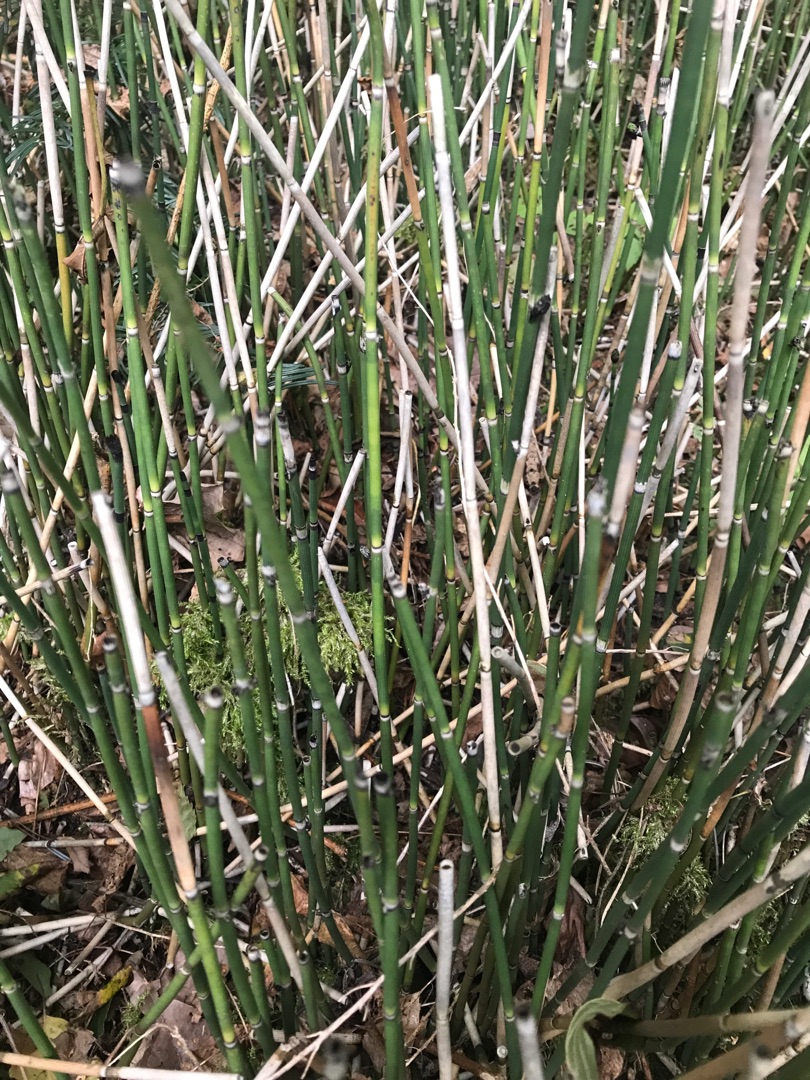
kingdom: Plantae
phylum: Tracheophyta
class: Polypodiopsida
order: Equisetales
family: Equisetaceae
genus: Equisetum
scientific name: Equisetum hyemale
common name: Skavgræs
